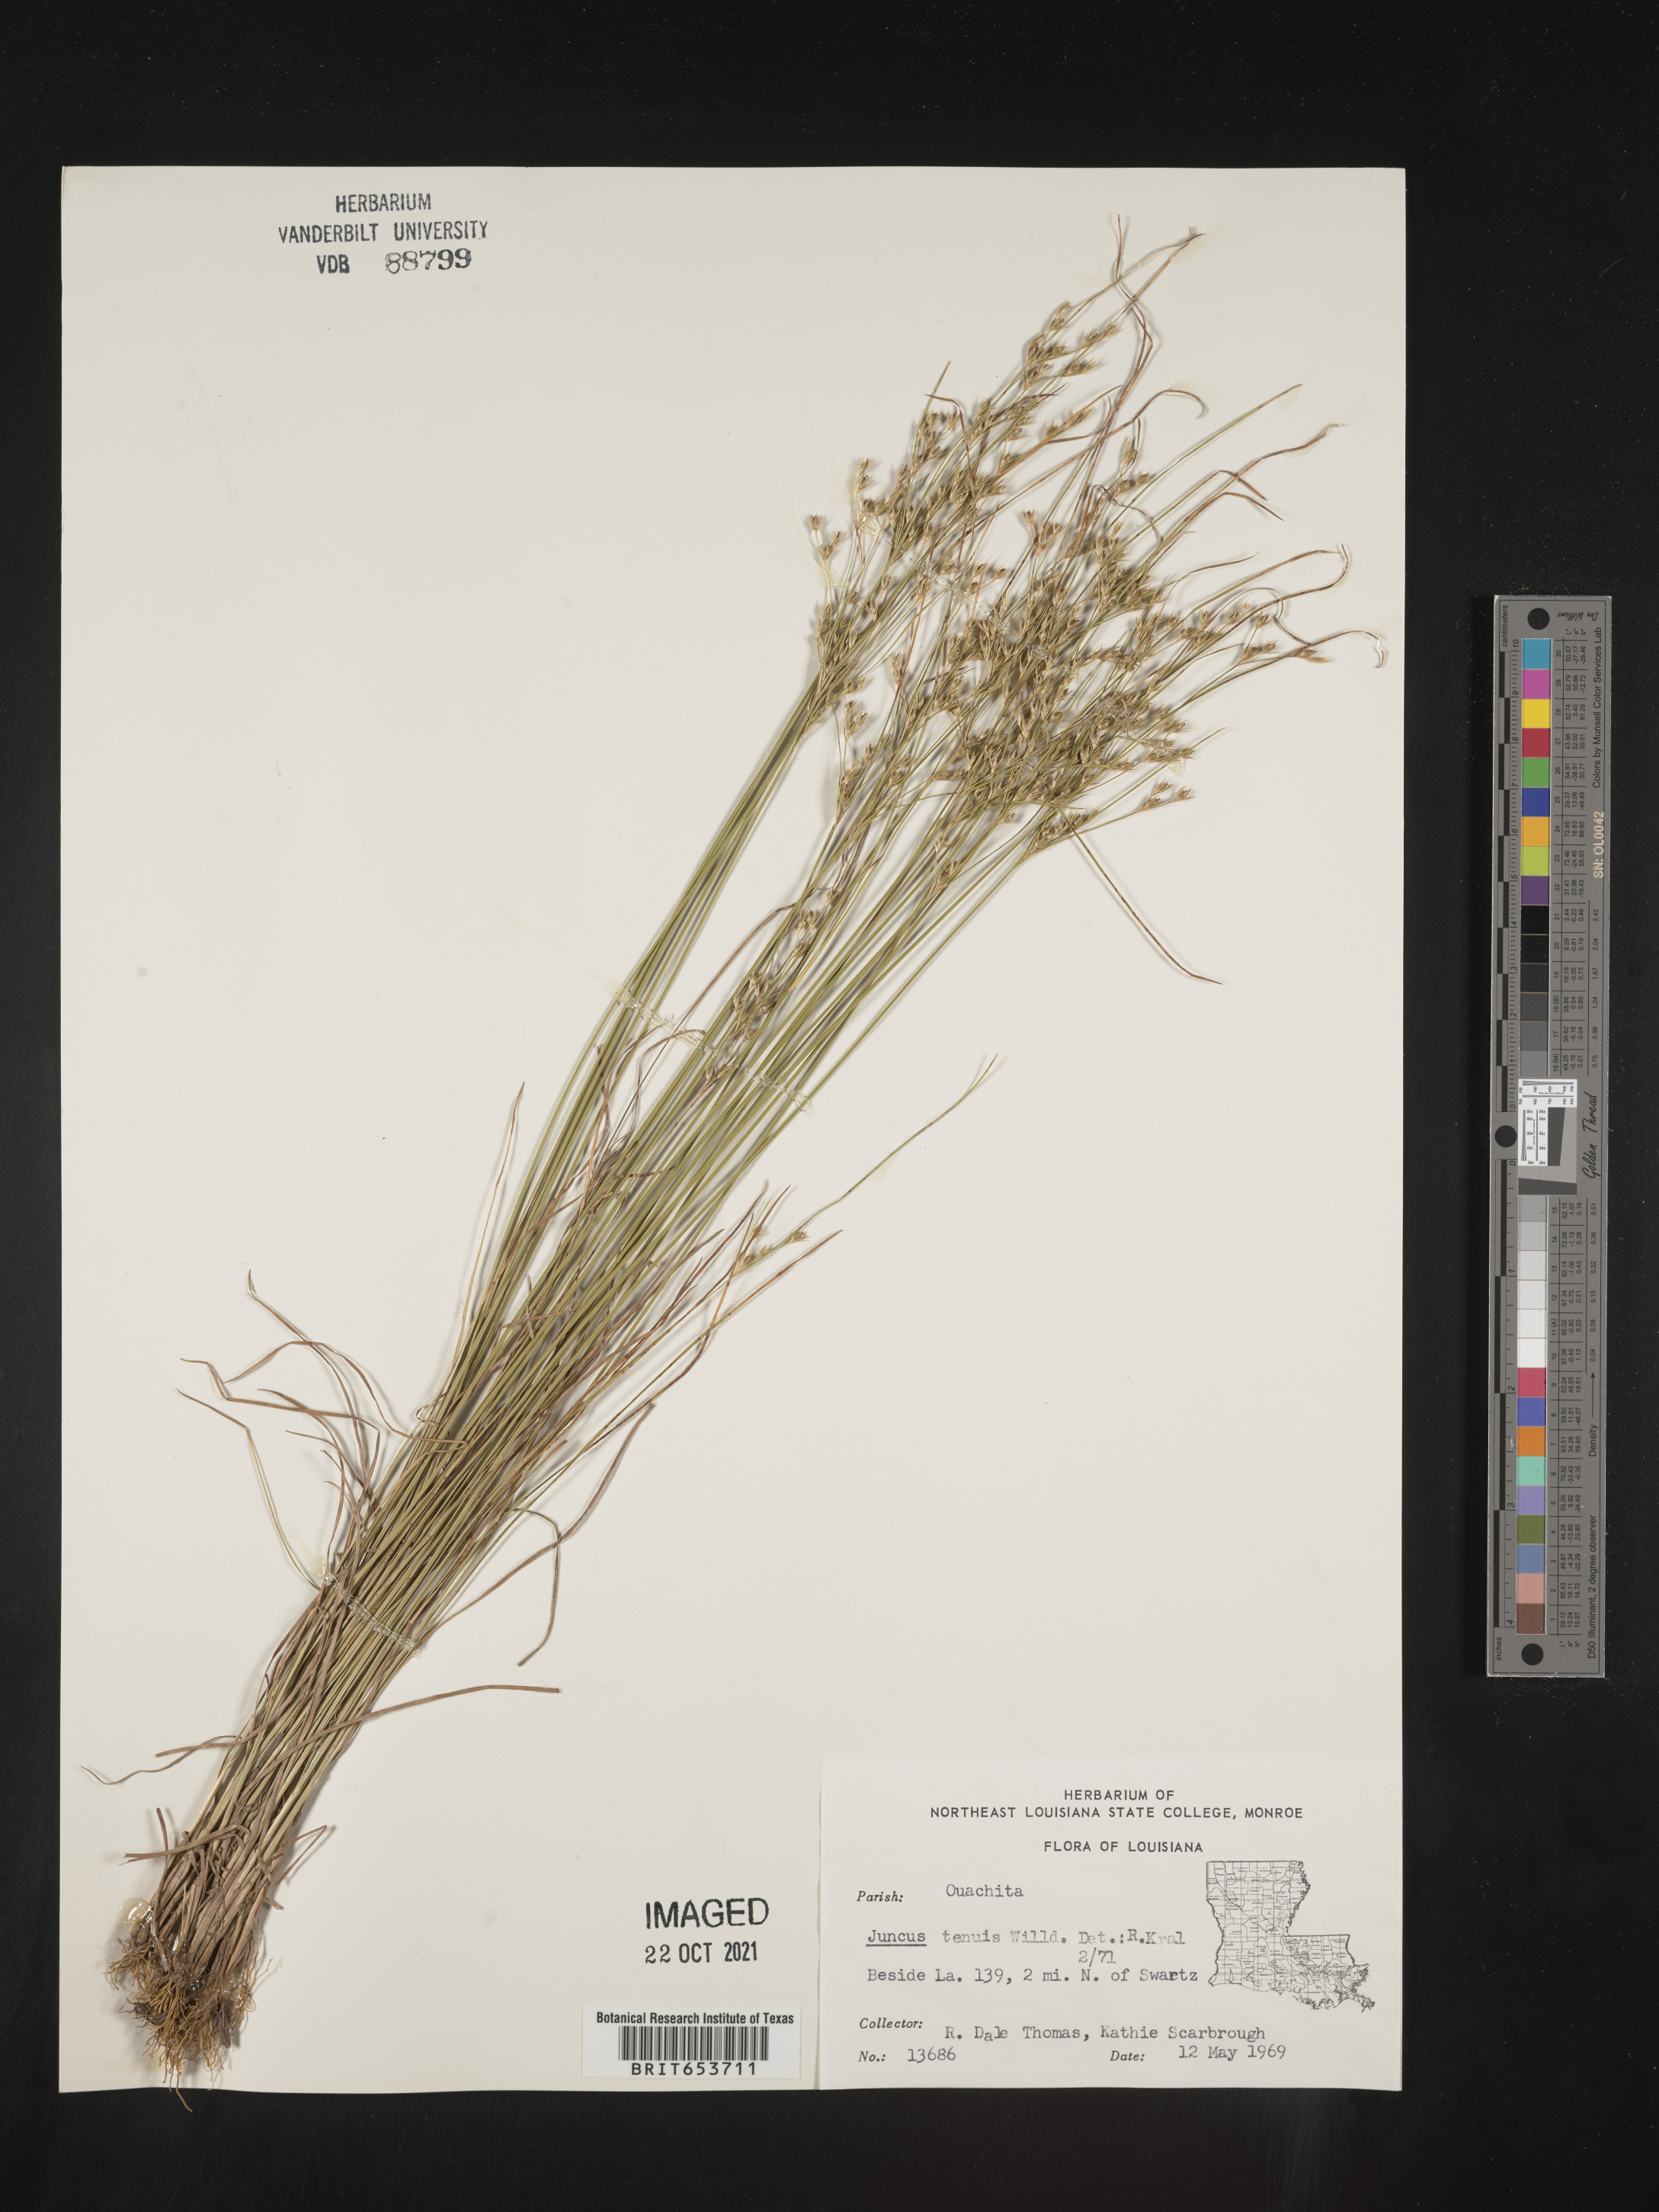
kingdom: Plantae
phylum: Tracheophyta
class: Liliopsida
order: Poales
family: Juncaceae
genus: Juncus
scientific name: Juncus tenuis
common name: Slender rush
